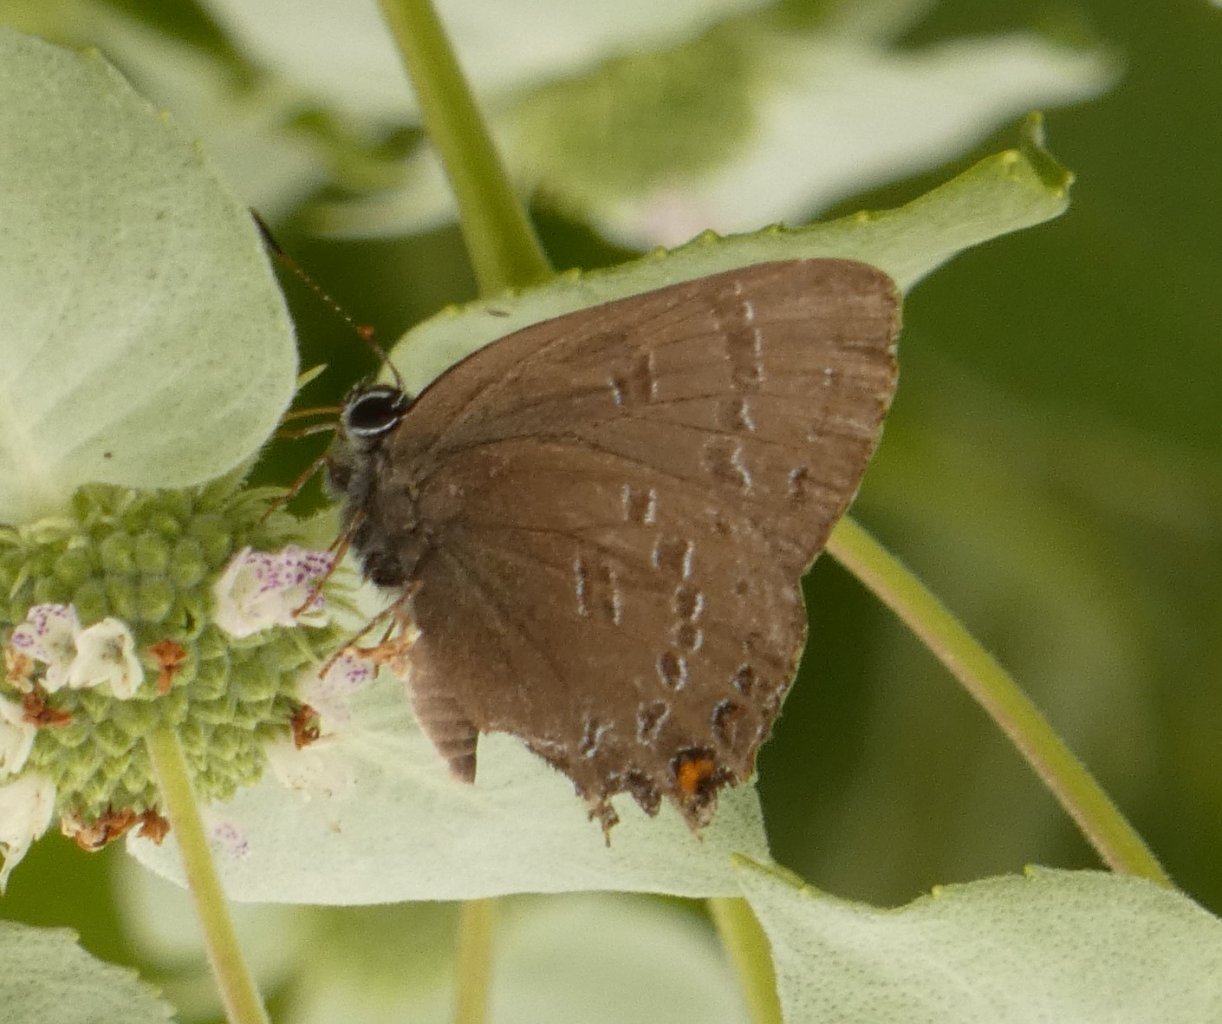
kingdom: Animalia
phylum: Arthropoda
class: Insecta
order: Lepidoptera
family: Lycaenidae
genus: Satyrium
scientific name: Satyrium calanus
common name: Banded Hairstreak
